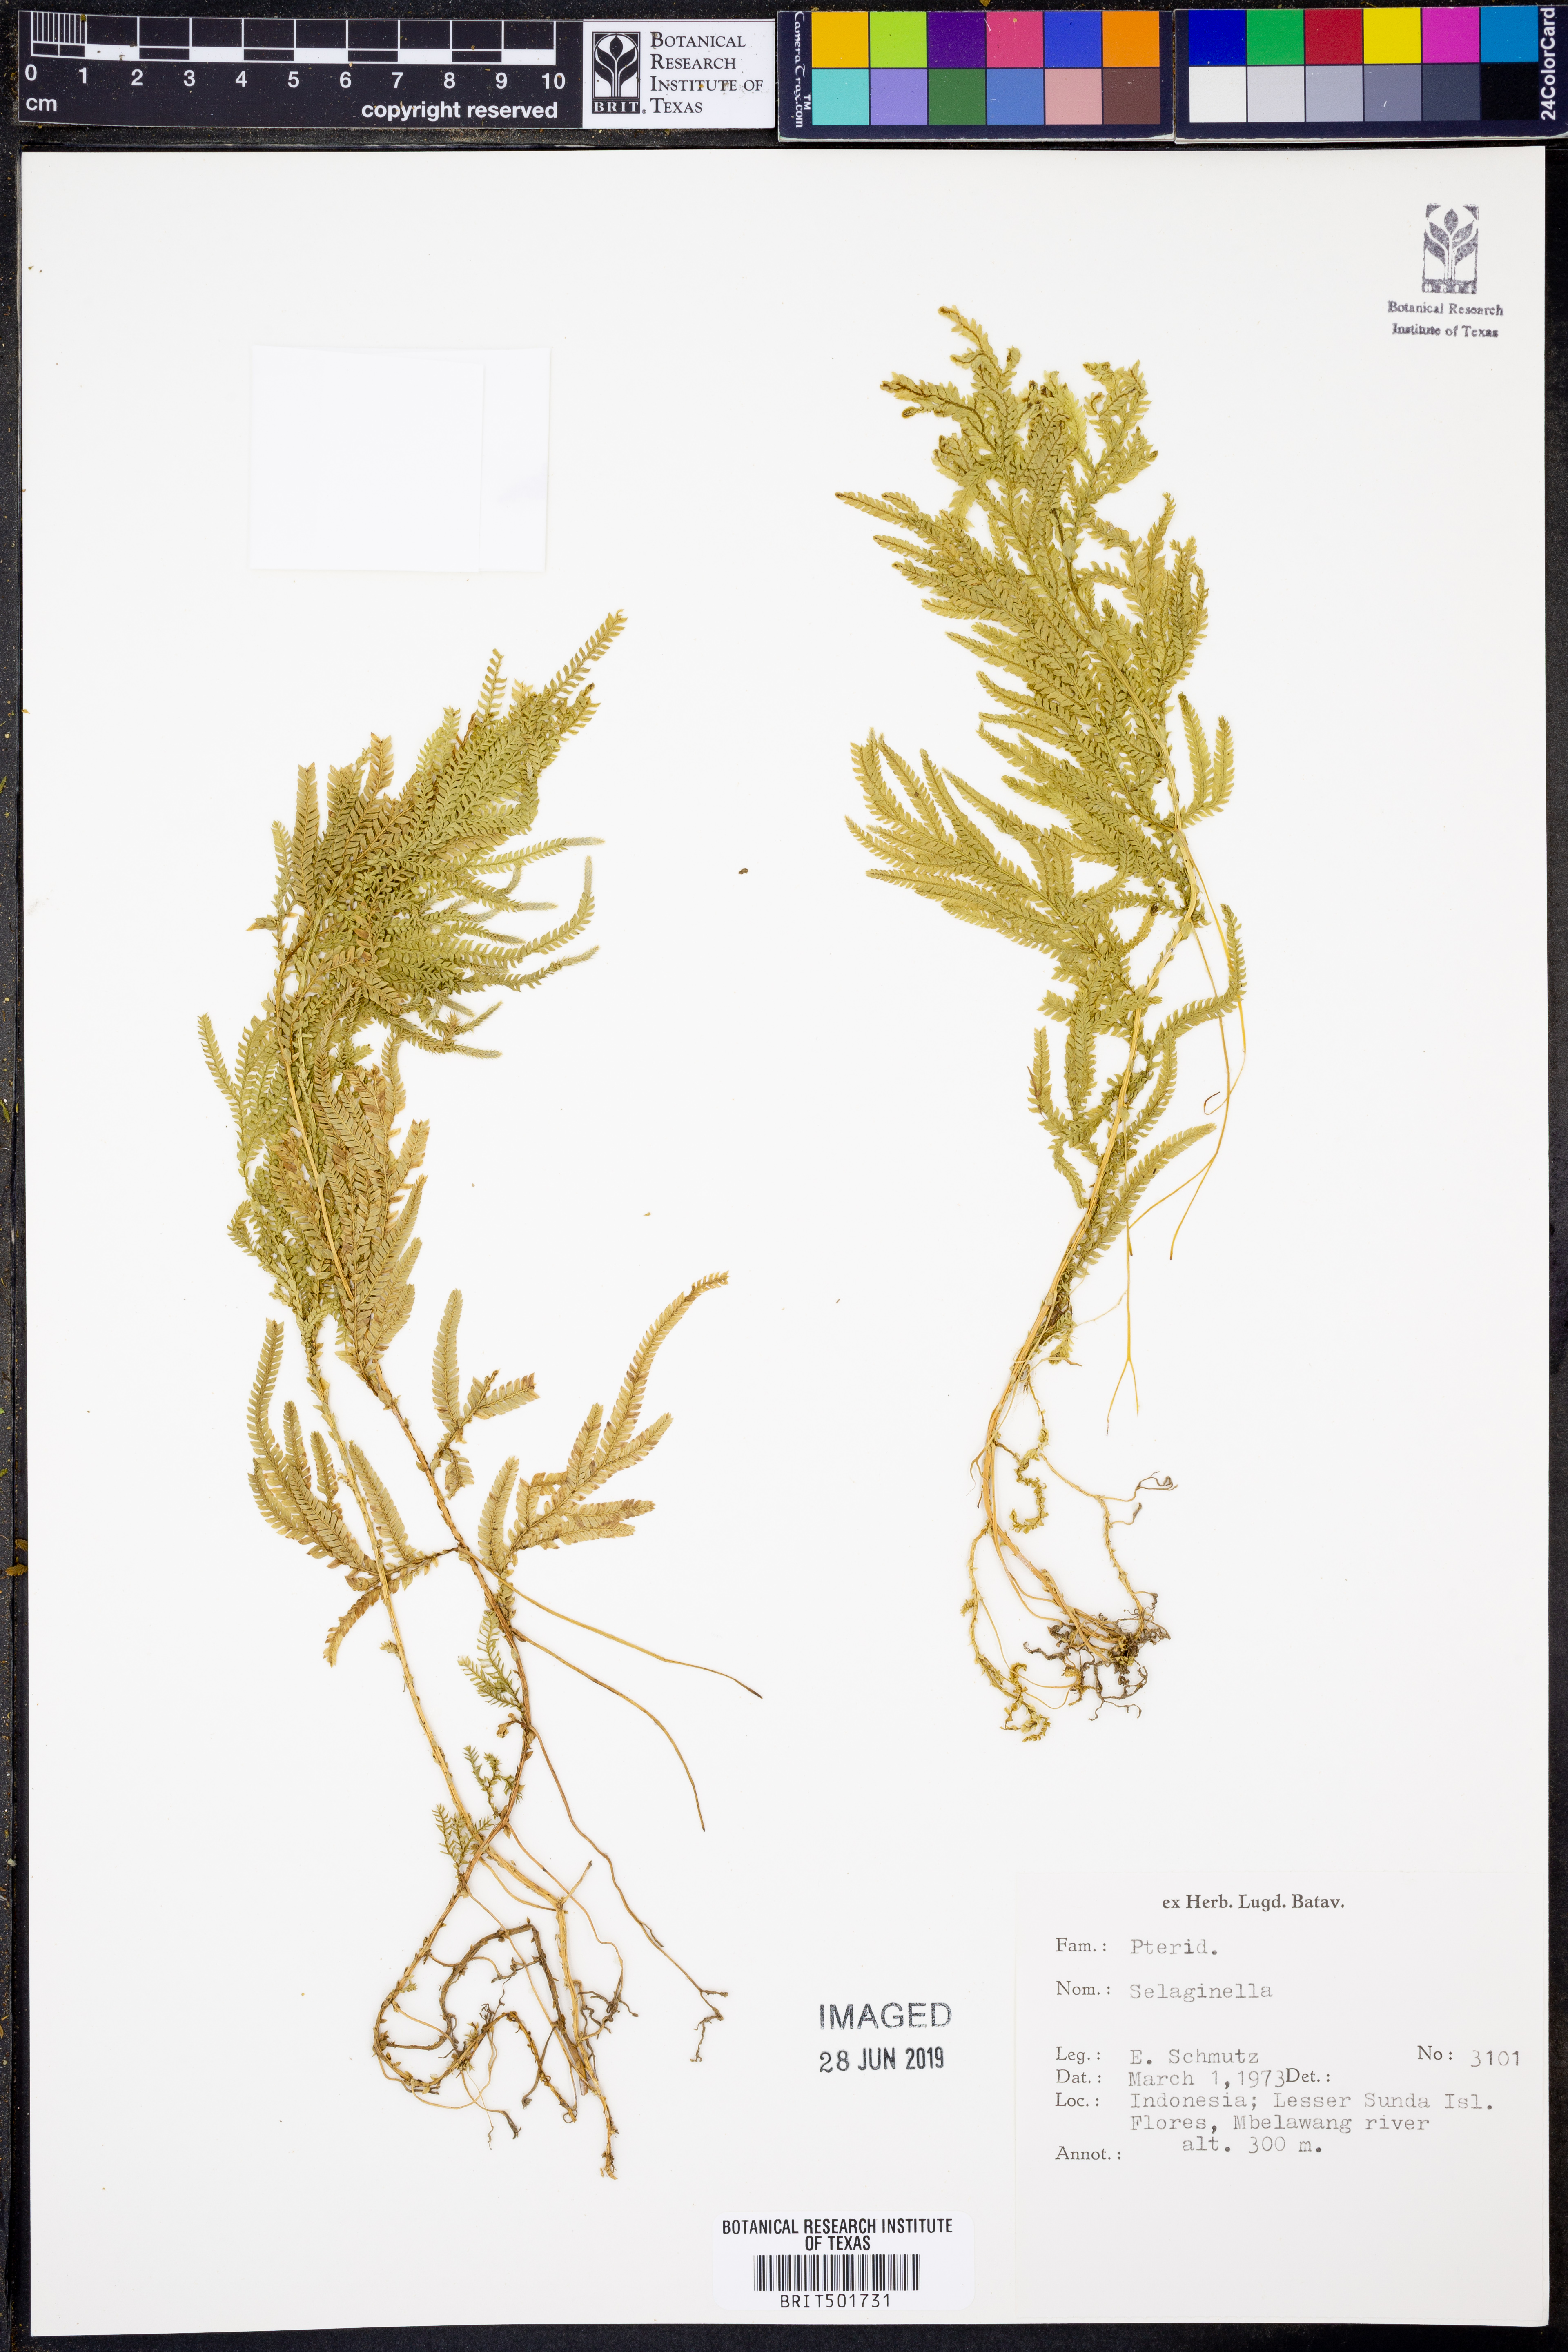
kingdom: Plantae
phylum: Tracheophyta
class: Lycopodiopsida
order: Selaginellales
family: Selaginellaceae
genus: Selaginella
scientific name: Selaginella
